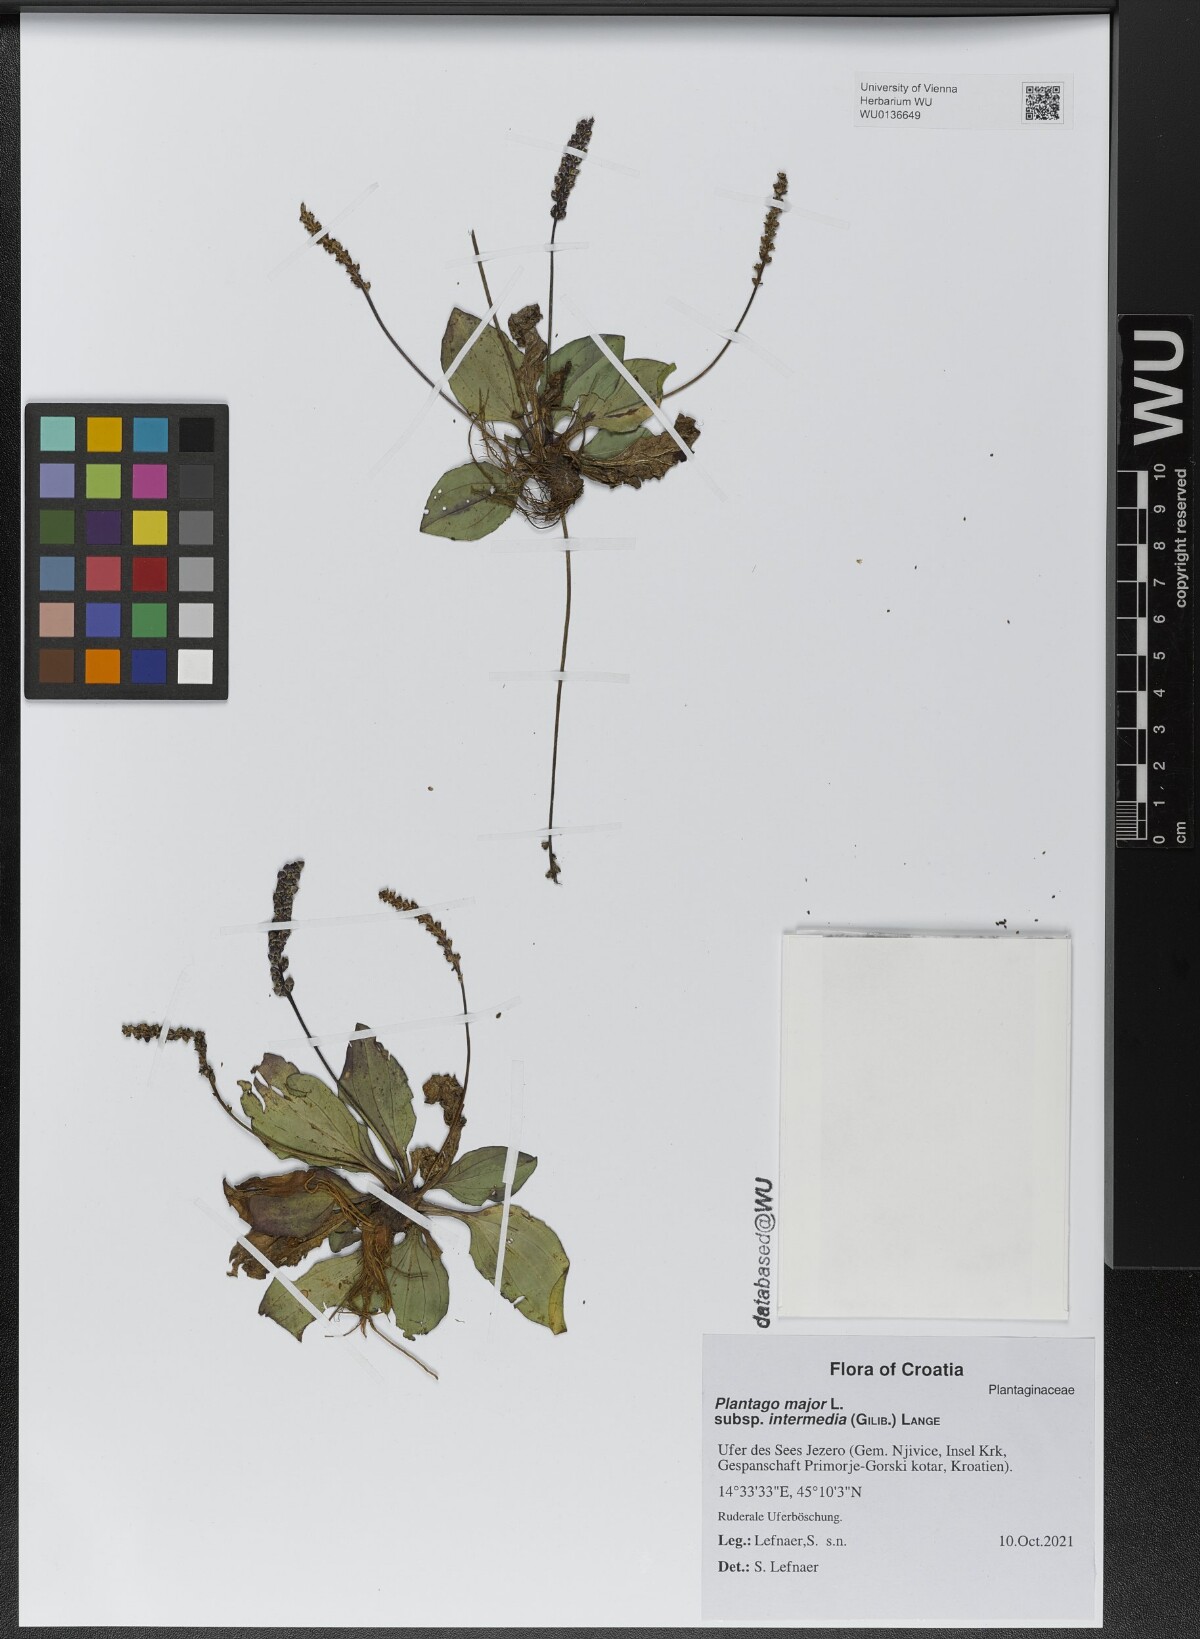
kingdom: Plantae
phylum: Tracheophyta
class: Magnoliopsida
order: Lamiales
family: Plantaginaceae
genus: Plantago
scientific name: Plantago uliginosa
